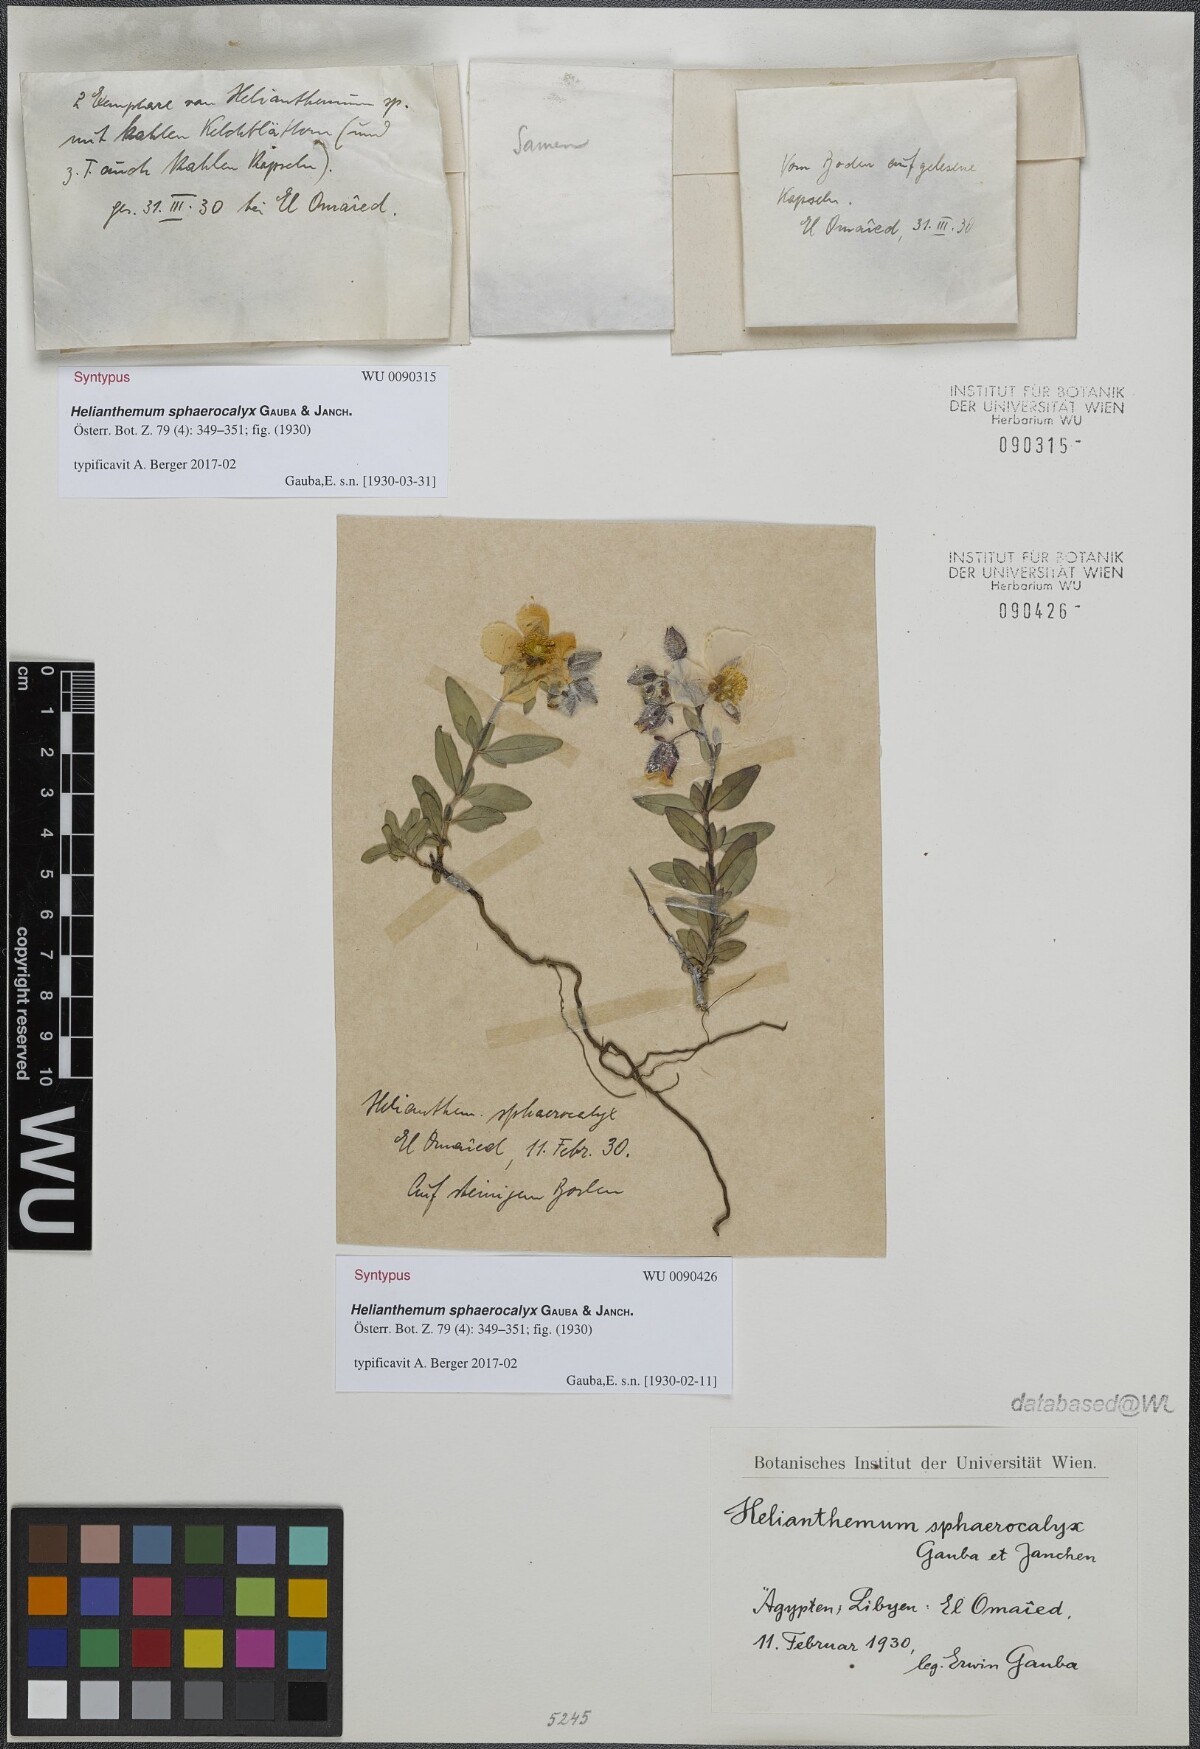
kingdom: Plantae
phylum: Tracheophyta
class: Magnoliopsida
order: Malvales
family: Cistaceae
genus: Helianthemum
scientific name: Helianthemum crassifolium
